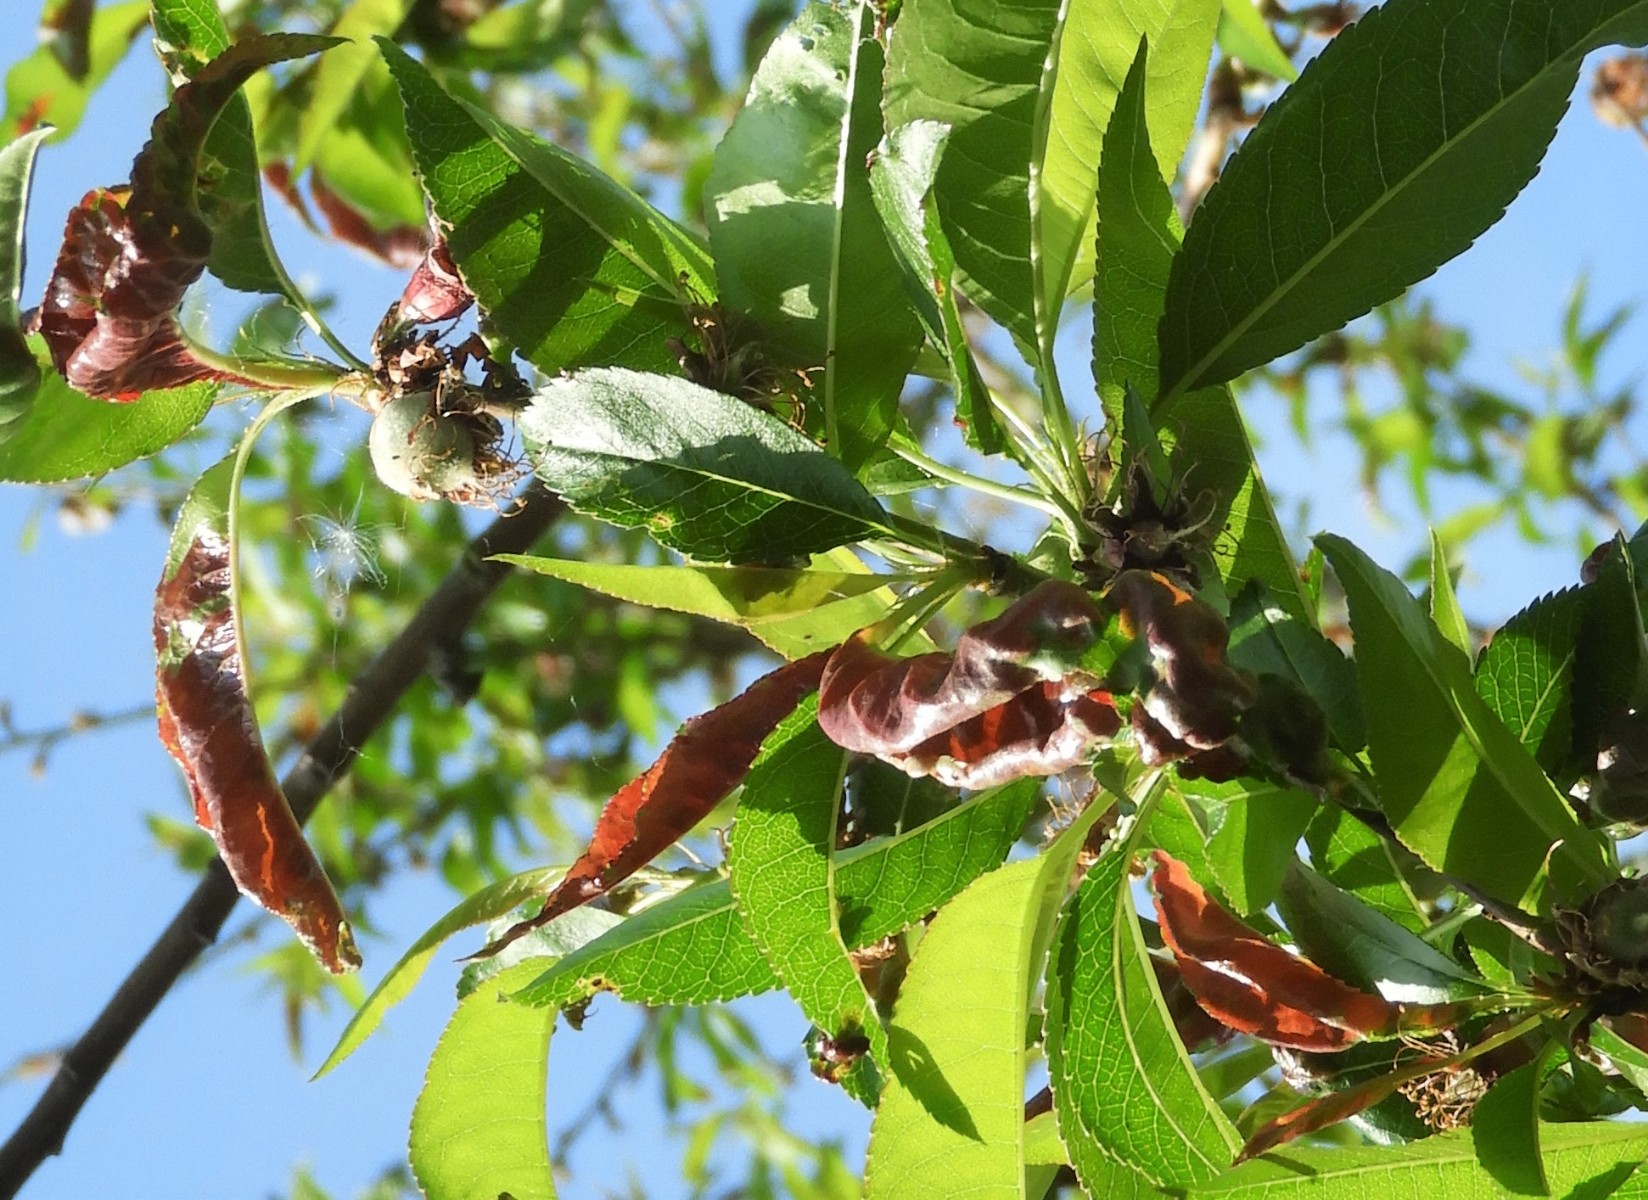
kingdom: Fungi
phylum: Ascomycota
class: Taphrinomycetes
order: Taphrinales
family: Taphrinaceae
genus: Taphrina
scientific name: Taphrina deformans
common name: Peach leaf curl
